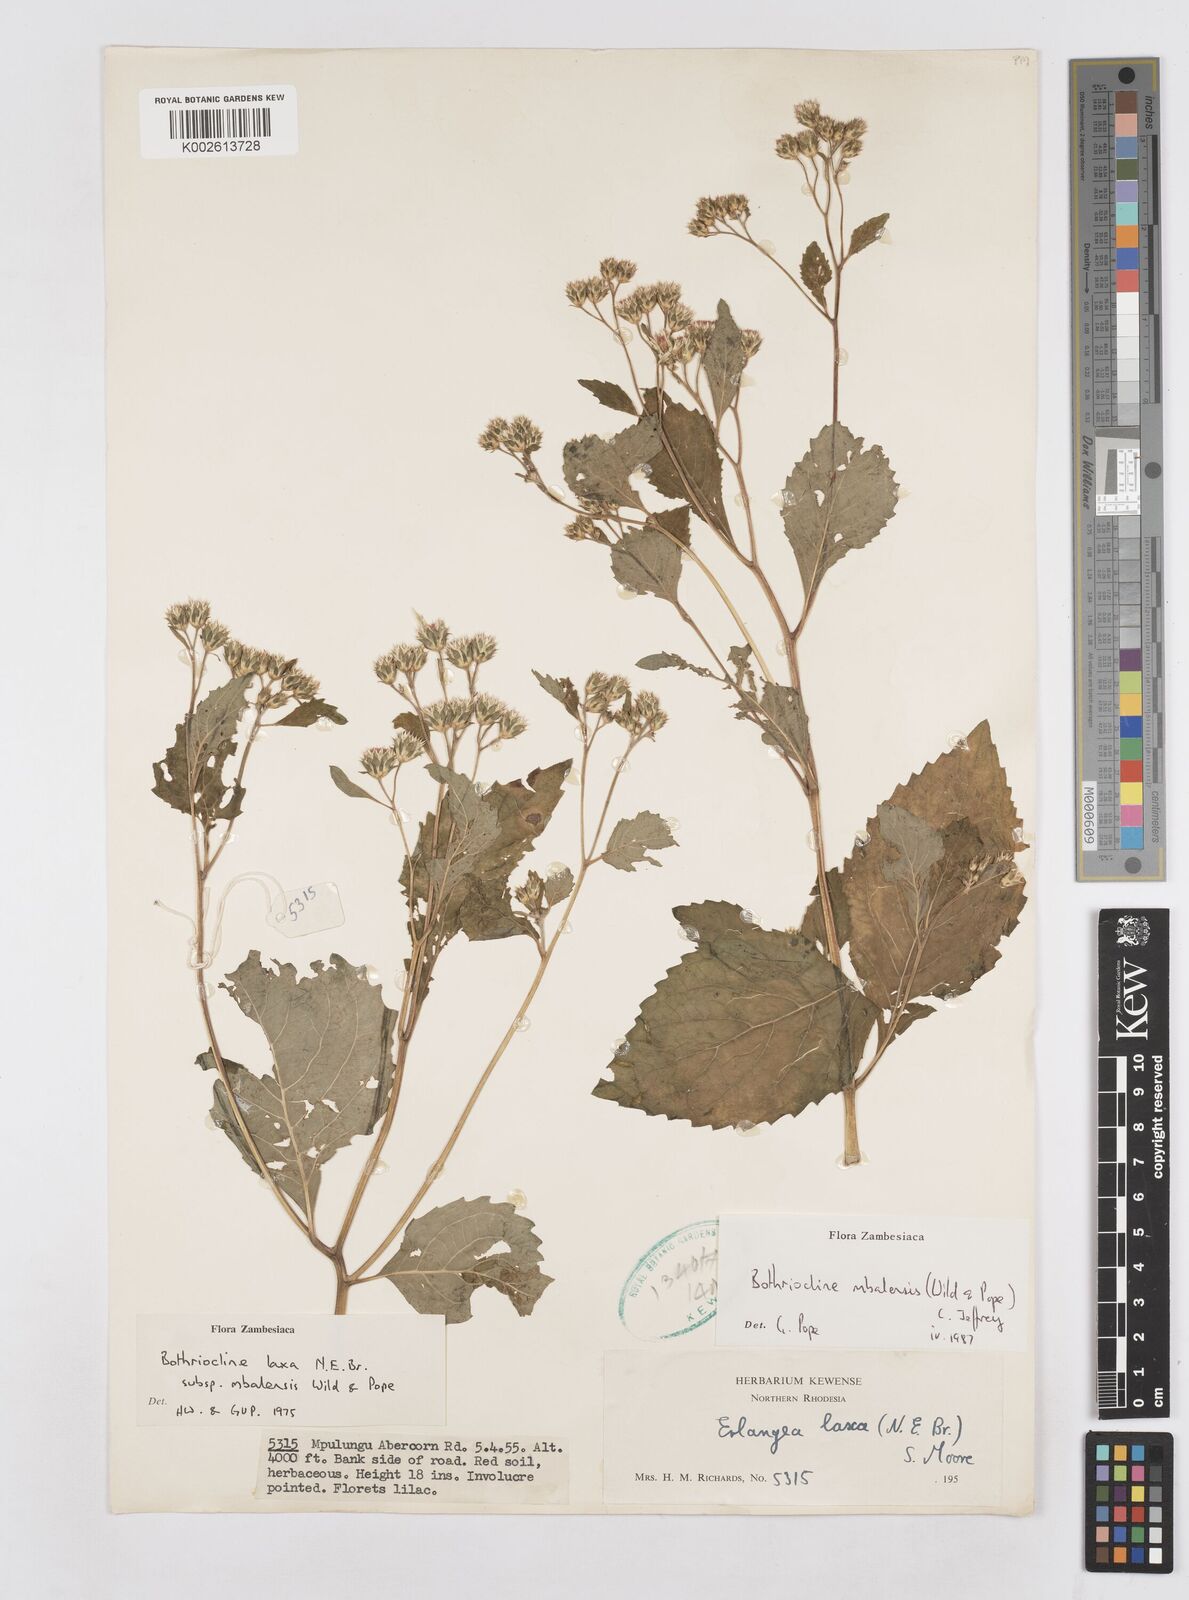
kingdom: Plantae
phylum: Tracheophyta
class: Magnoliopsida
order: Asterales
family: Asteraceae
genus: Bothriocline
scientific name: Bothriocline mbalensis
